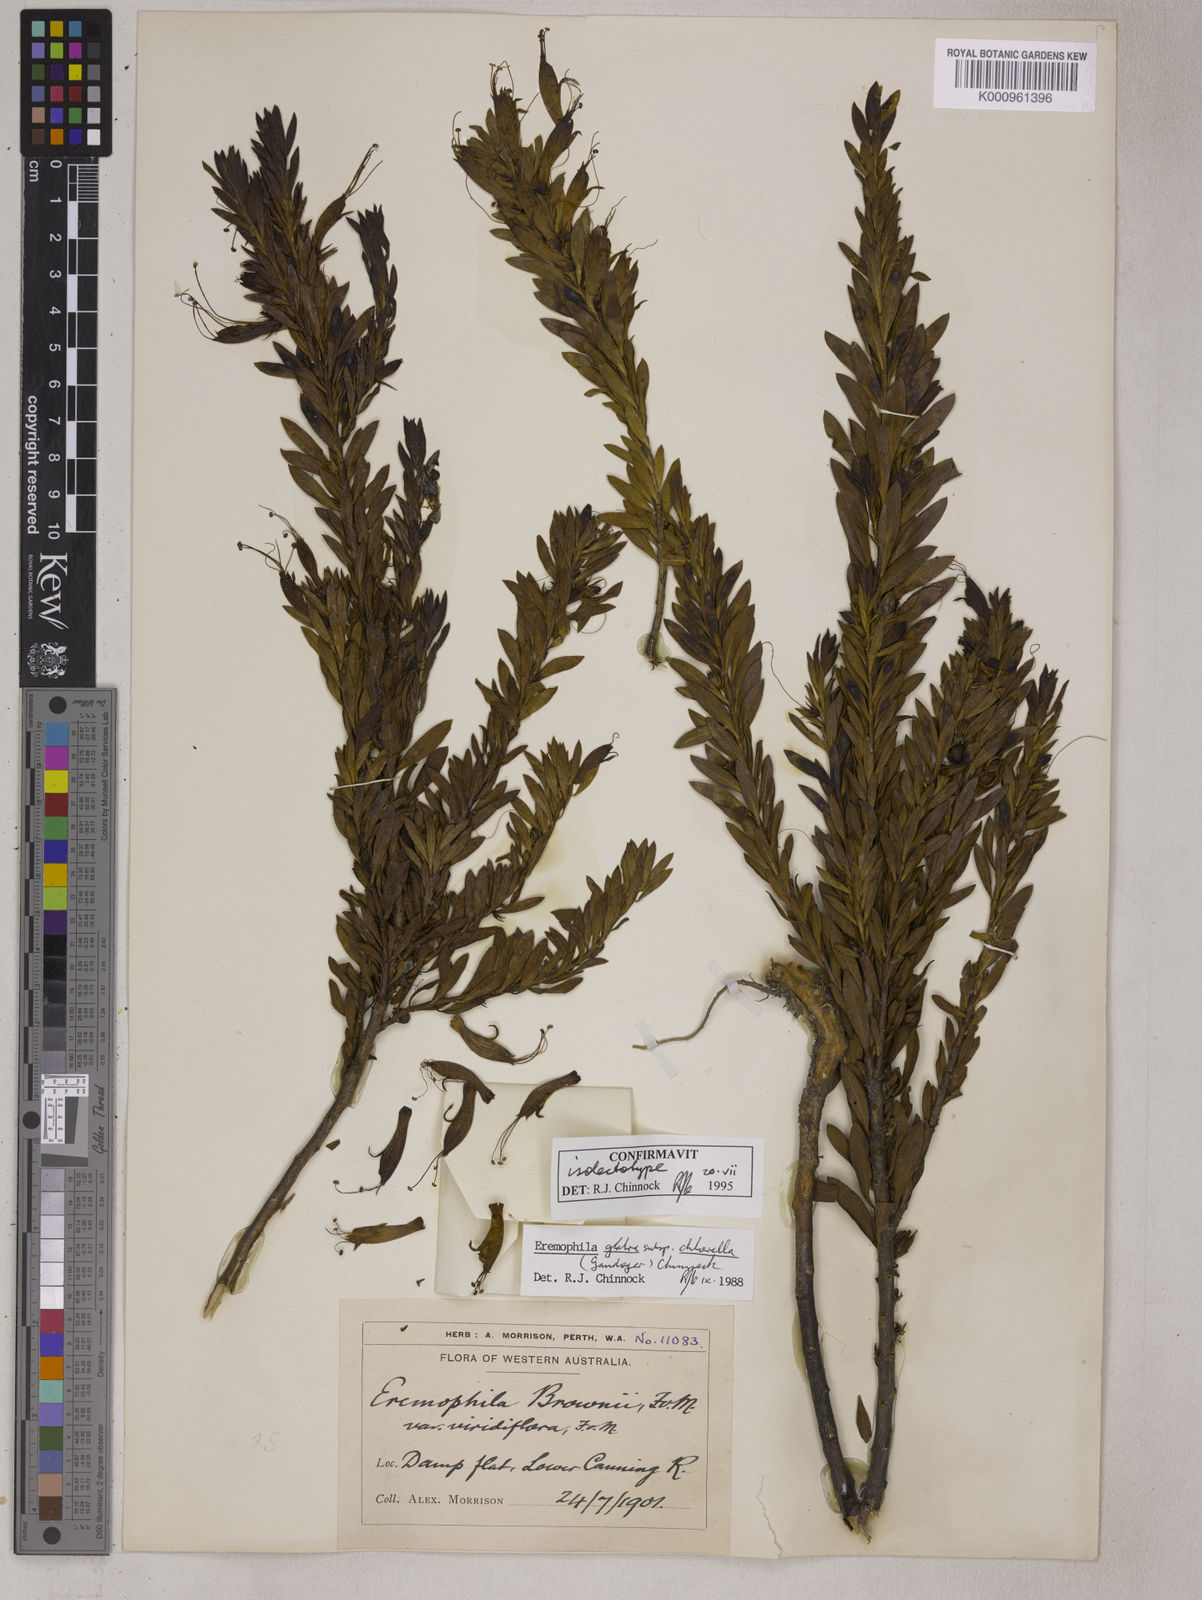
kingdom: Plantae
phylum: Tracheophyta
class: Magnoliopsida
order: Lamiales
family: Scrophulariaceae
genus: Eremophila
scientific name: Eremophila glabra
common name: Black-fuchsia
